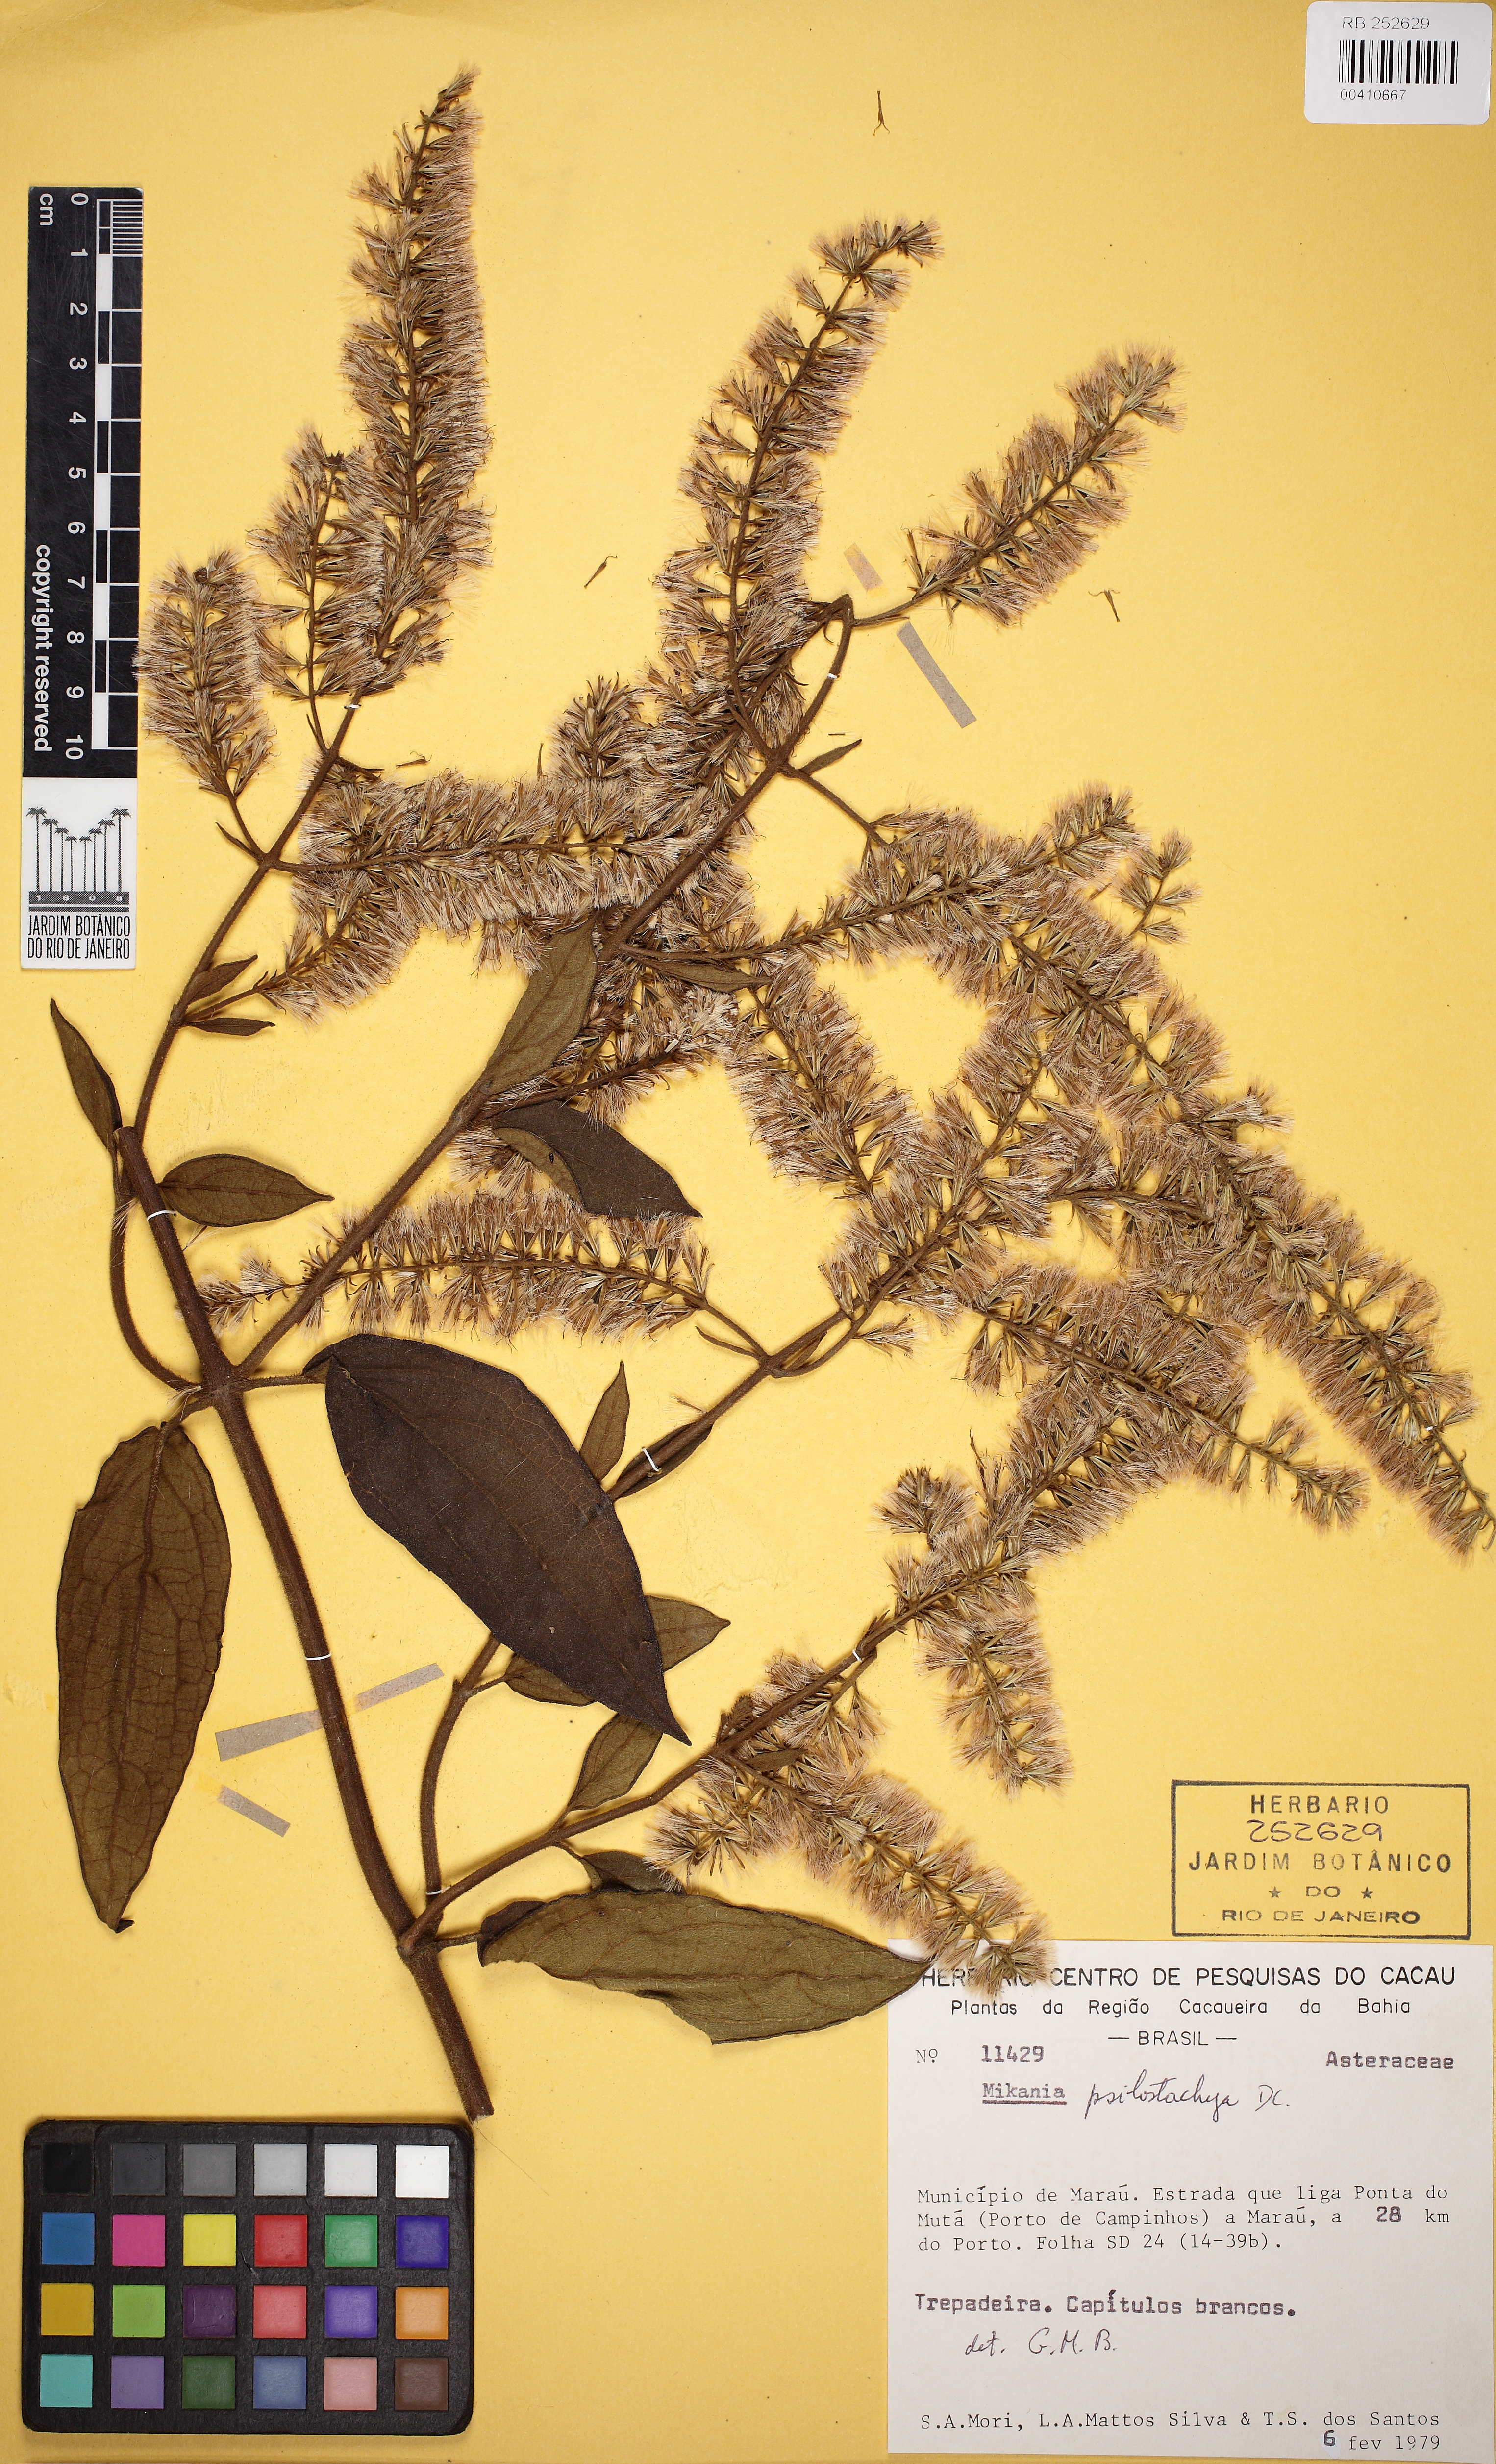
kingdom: Plantae
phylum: Tracheophyta
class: Magnoliopsida
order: Asterales
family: Asteraceae
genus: Mikania
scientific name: Mikania psilostachya
